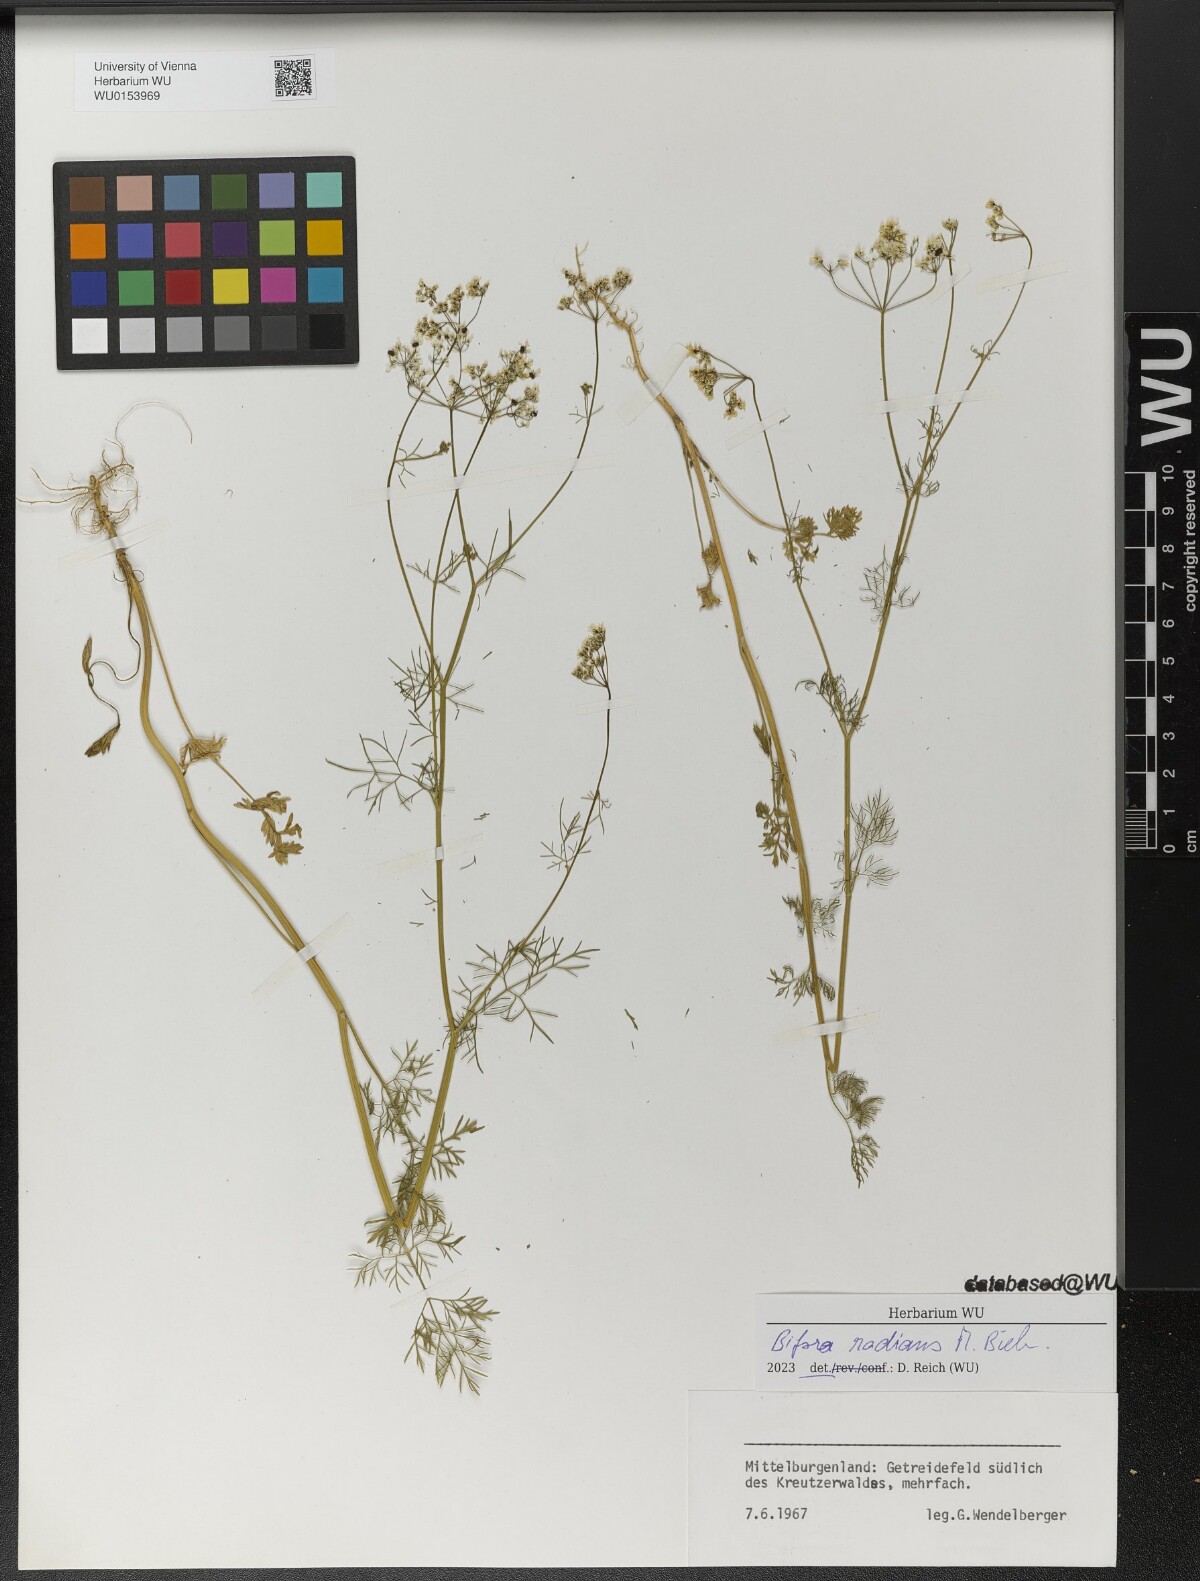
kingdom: Plantae
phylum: Tracheophyta
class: Magnoliopsida
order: Apiales
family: Apiaceae
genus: Bifora
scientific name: Bifora radians
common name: Wild bishop
